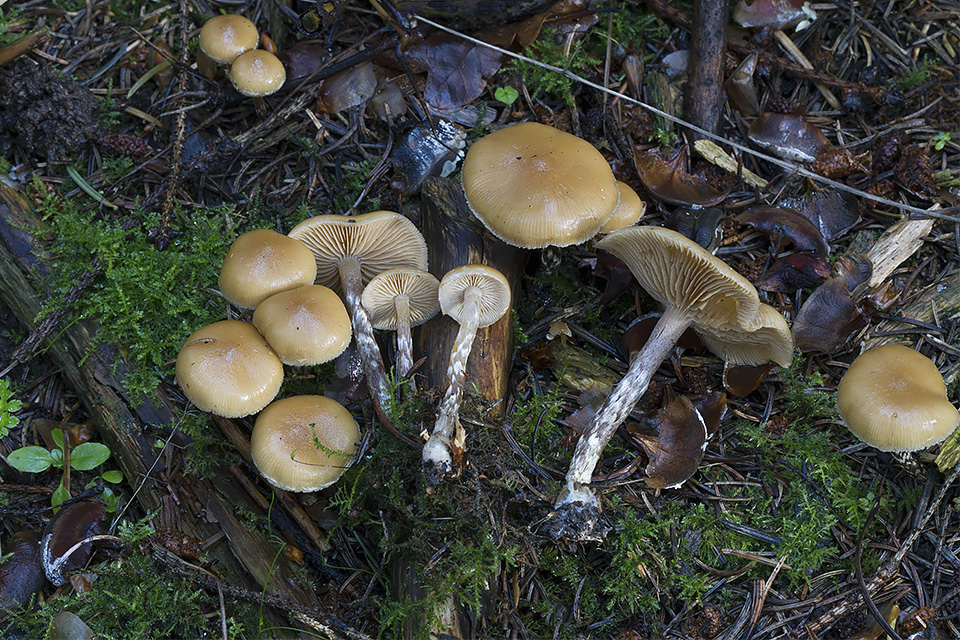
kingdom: Fungi
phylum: Basidiomycota
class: Agaricomycetes
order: Agaricales
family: Hymenogastraceae
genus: Galerina
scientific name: Galerina sideroides
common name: træflis-hjelmhat
